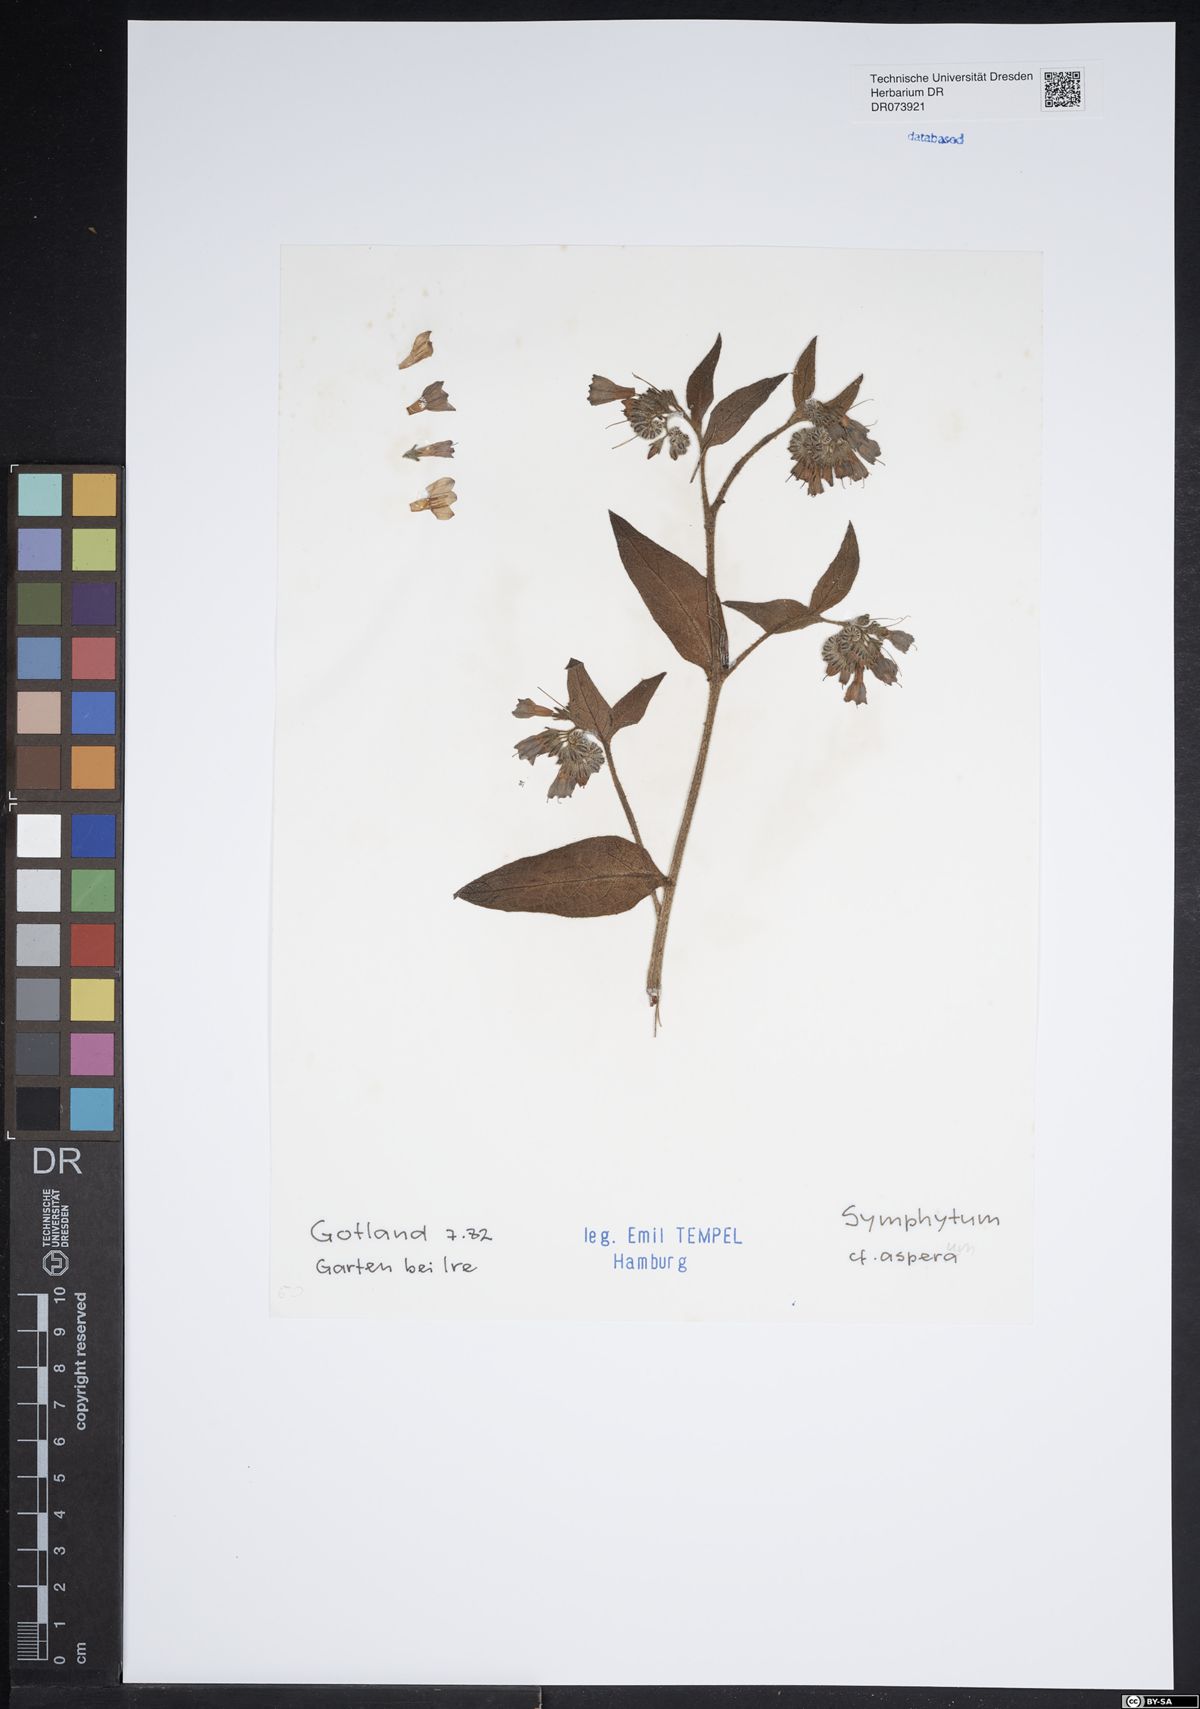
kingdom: Plantae
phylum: Tracheophyta
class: Magnoliopsida
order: Boraginales
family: Boraginaceae
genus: Symphytum
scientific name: Symphytum asperum
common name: Prickly comfrey
